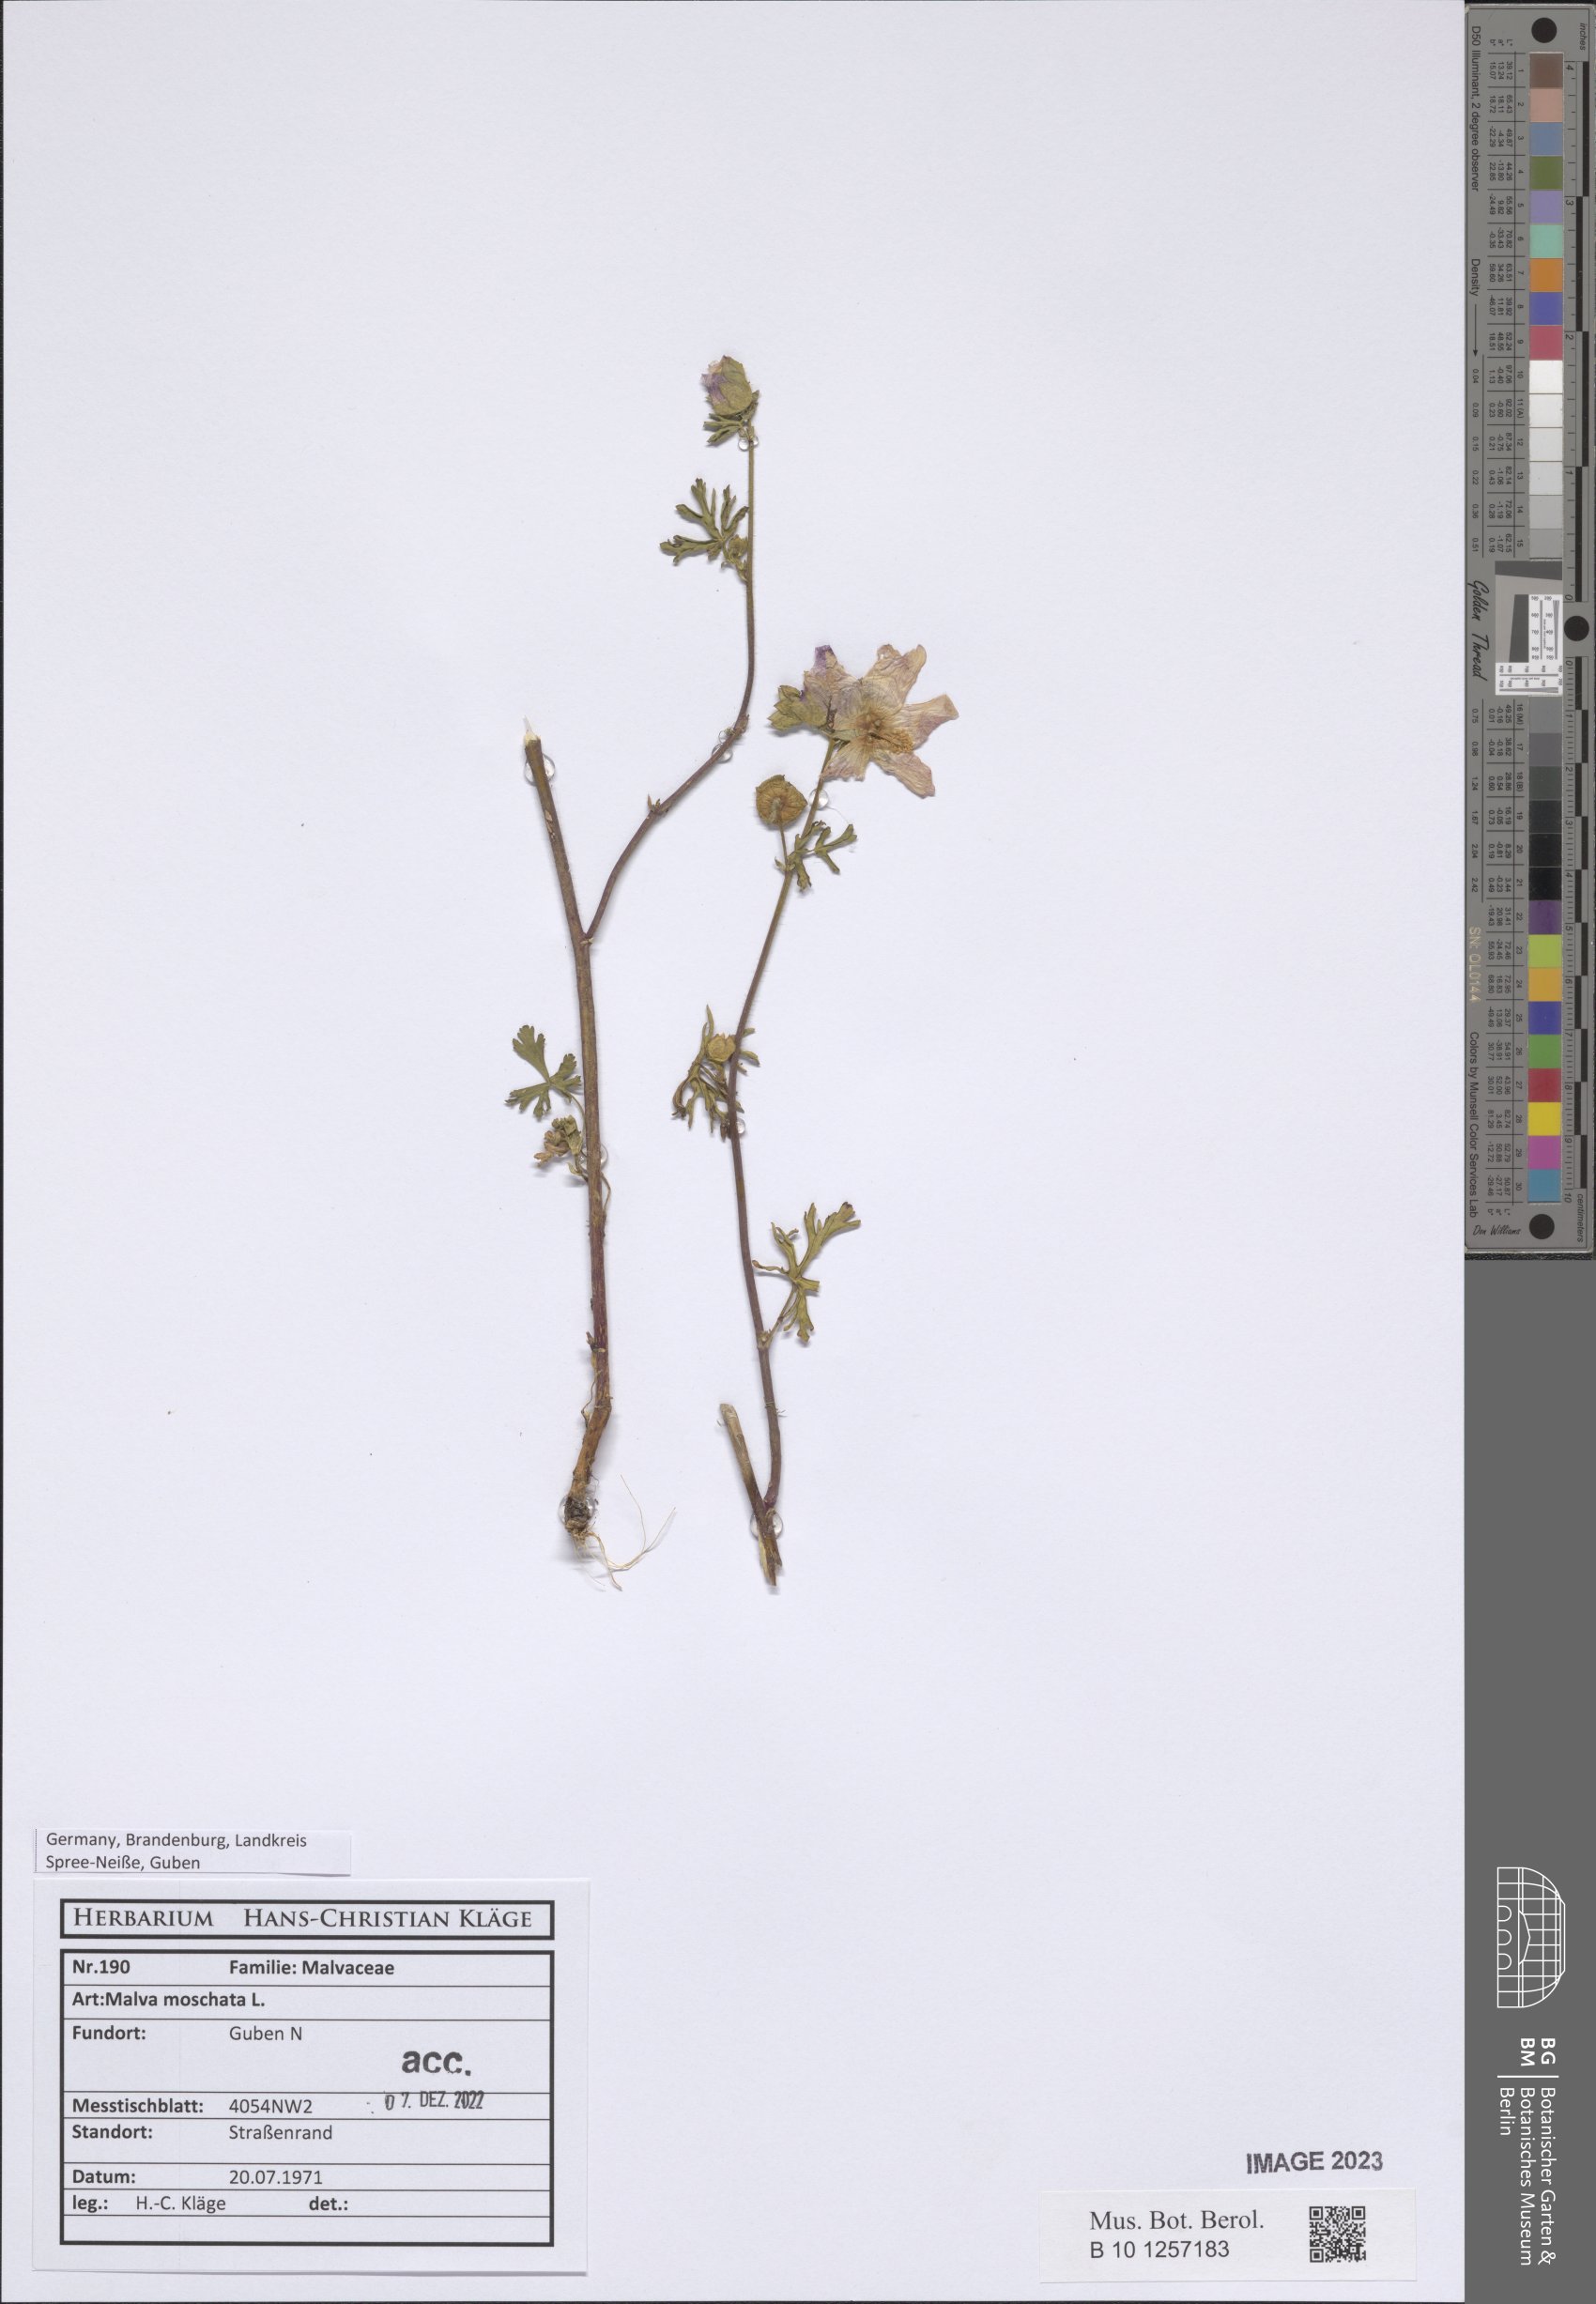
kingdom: Plantae
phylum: Tracheophyta
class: Magnoliopsida
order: Malvales
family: Malvaceae
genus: Malva
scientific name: Malva moschata
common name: Musk mallow
